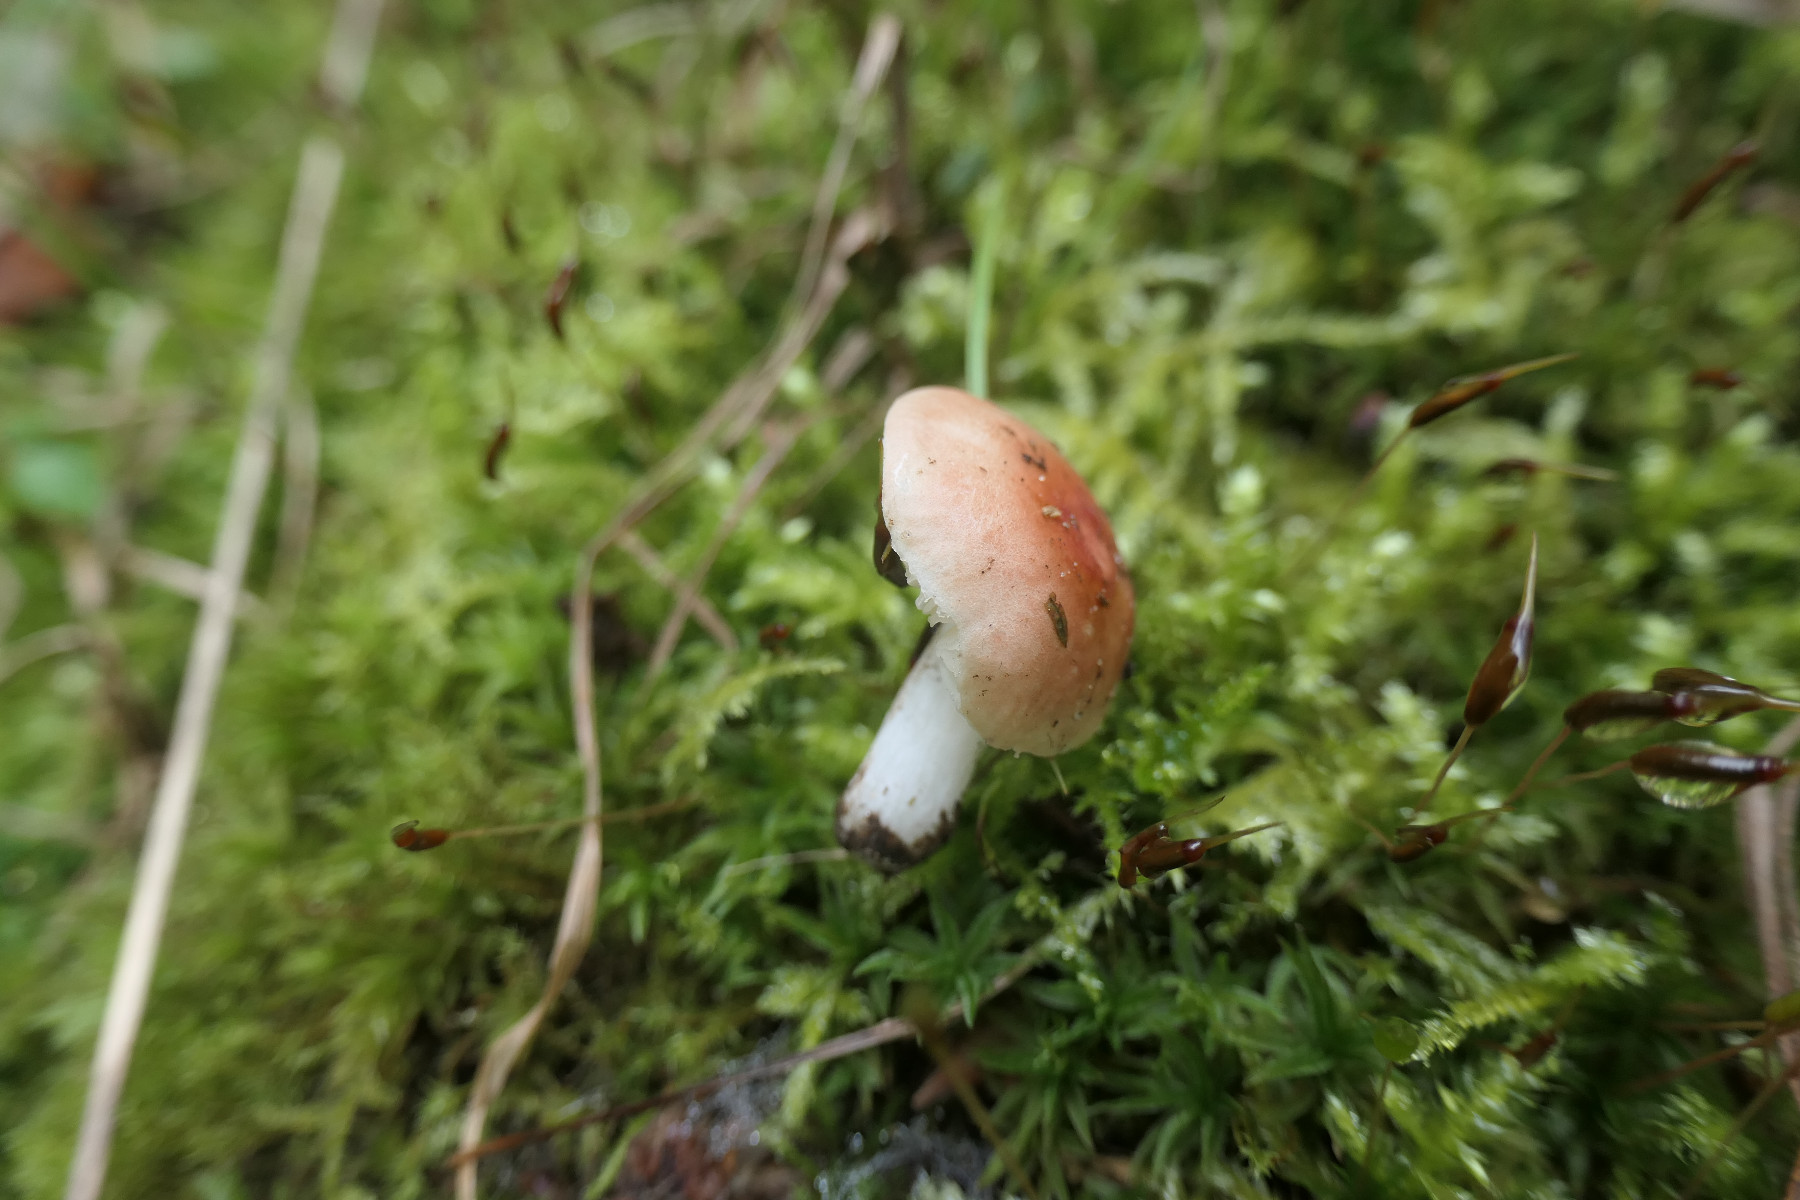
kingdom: Fungi
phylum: Basidiomycota
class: Agaricomycetes
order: Russulales
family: Russulaceae
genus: Russula
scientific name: Russula odorata
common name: duft-skørhat
